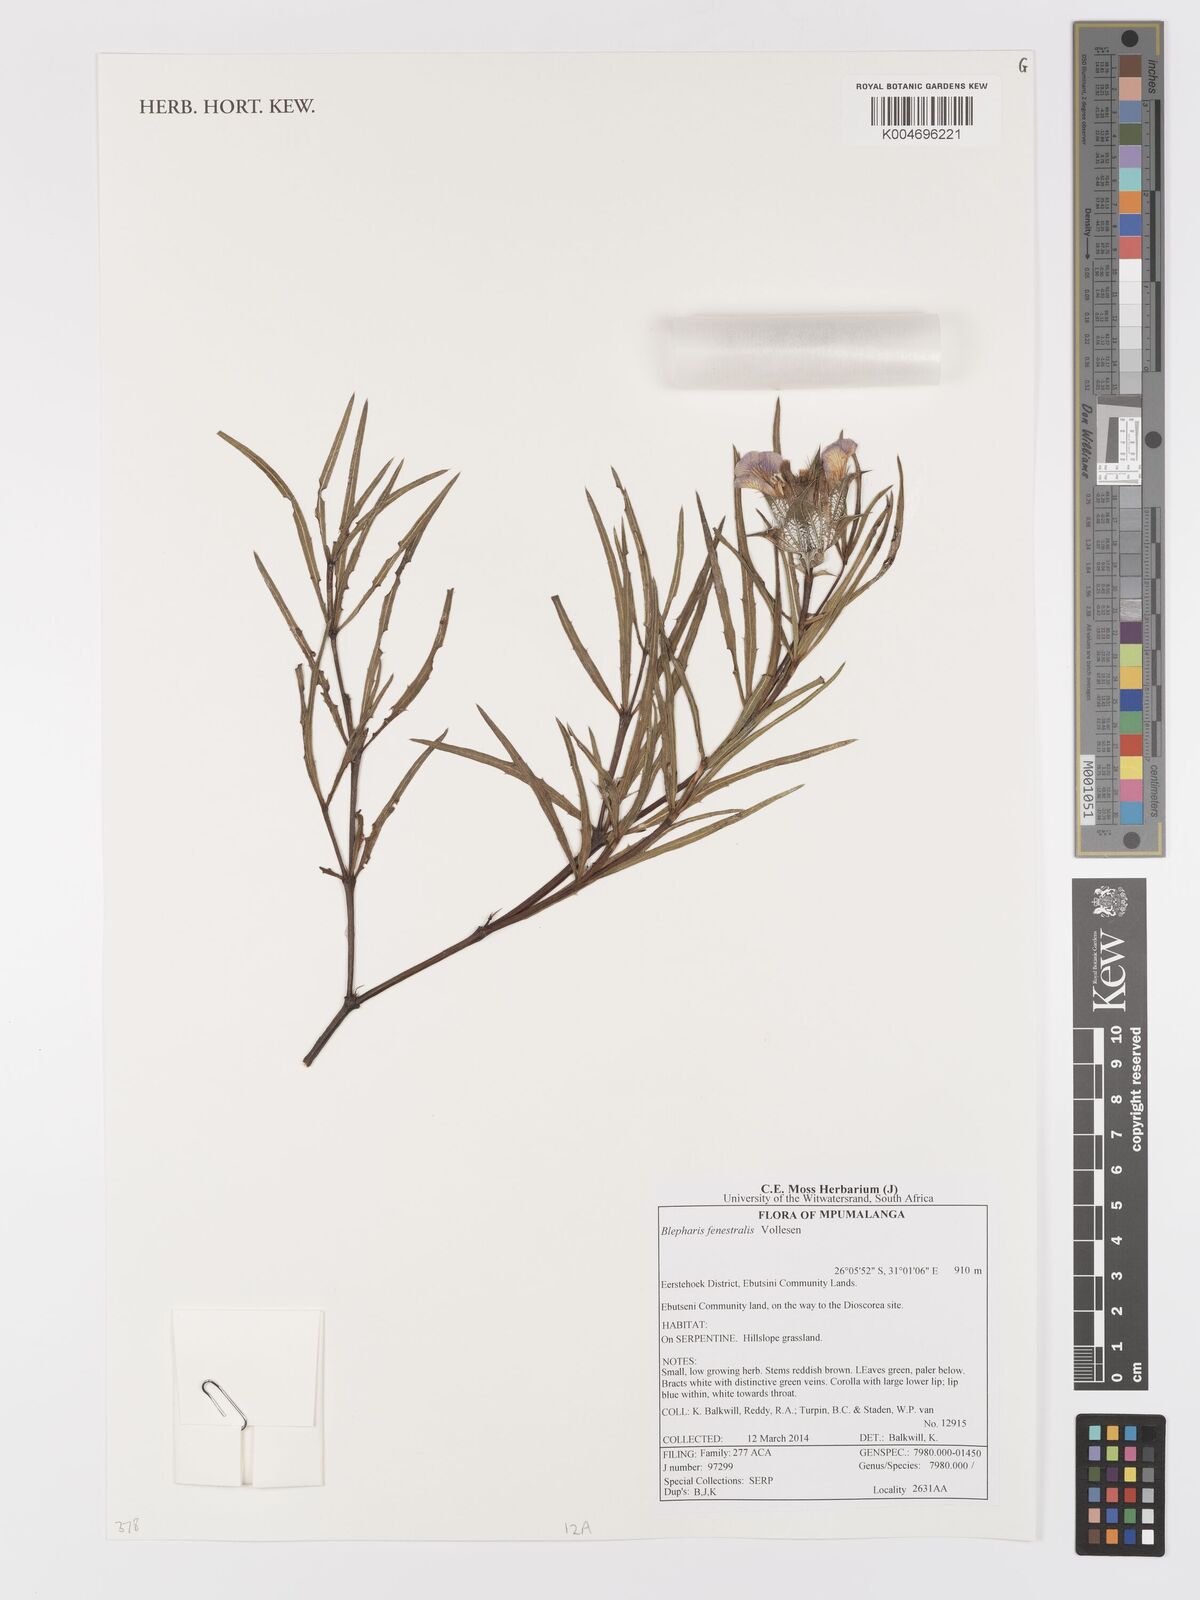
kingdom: Plantae
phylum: Tracheophyta
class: Magnoliopsida
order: Lamiales
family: Acanthaceae
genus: Blepharis
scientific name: Blepharis fenestralis
